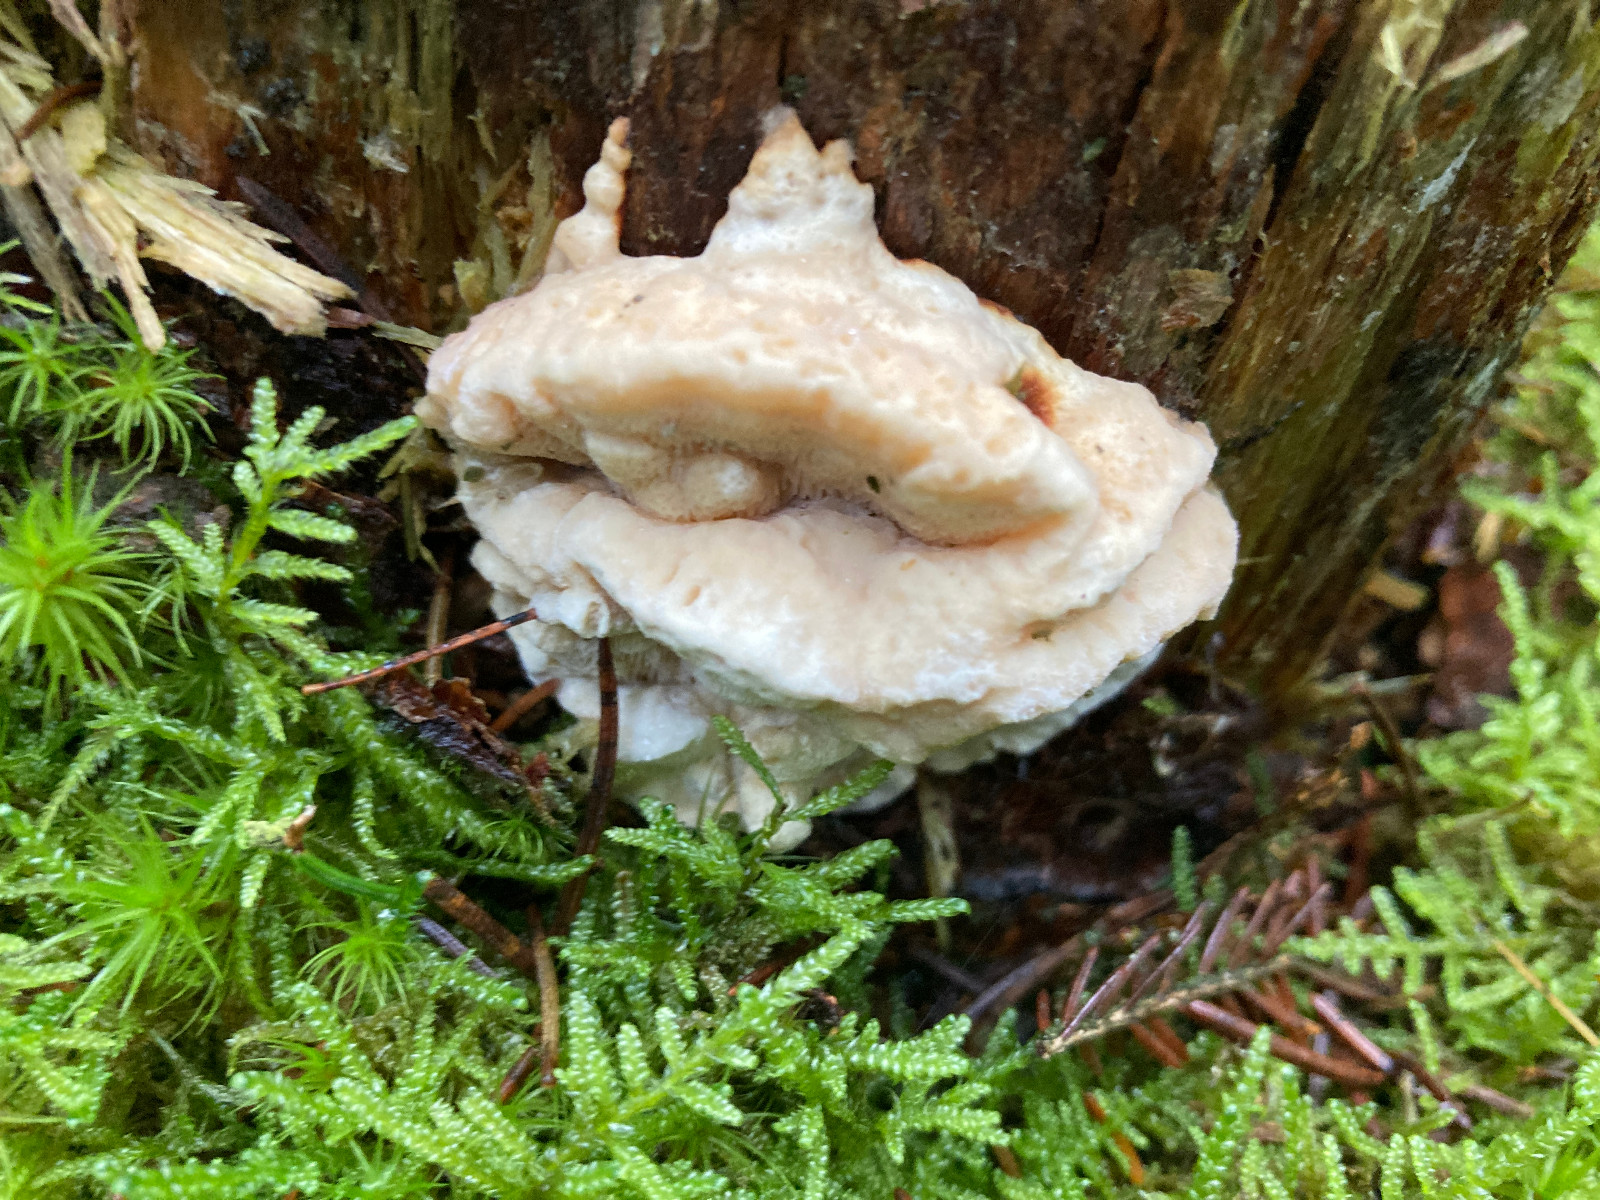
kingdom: Fungi
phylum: Basidiomycota
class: Agaricomycetes
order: Russulales
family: Bondarzewiaceae
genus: Heterobasidion
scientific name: Heterobasidion annosum
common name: almindelig rodfordærver
